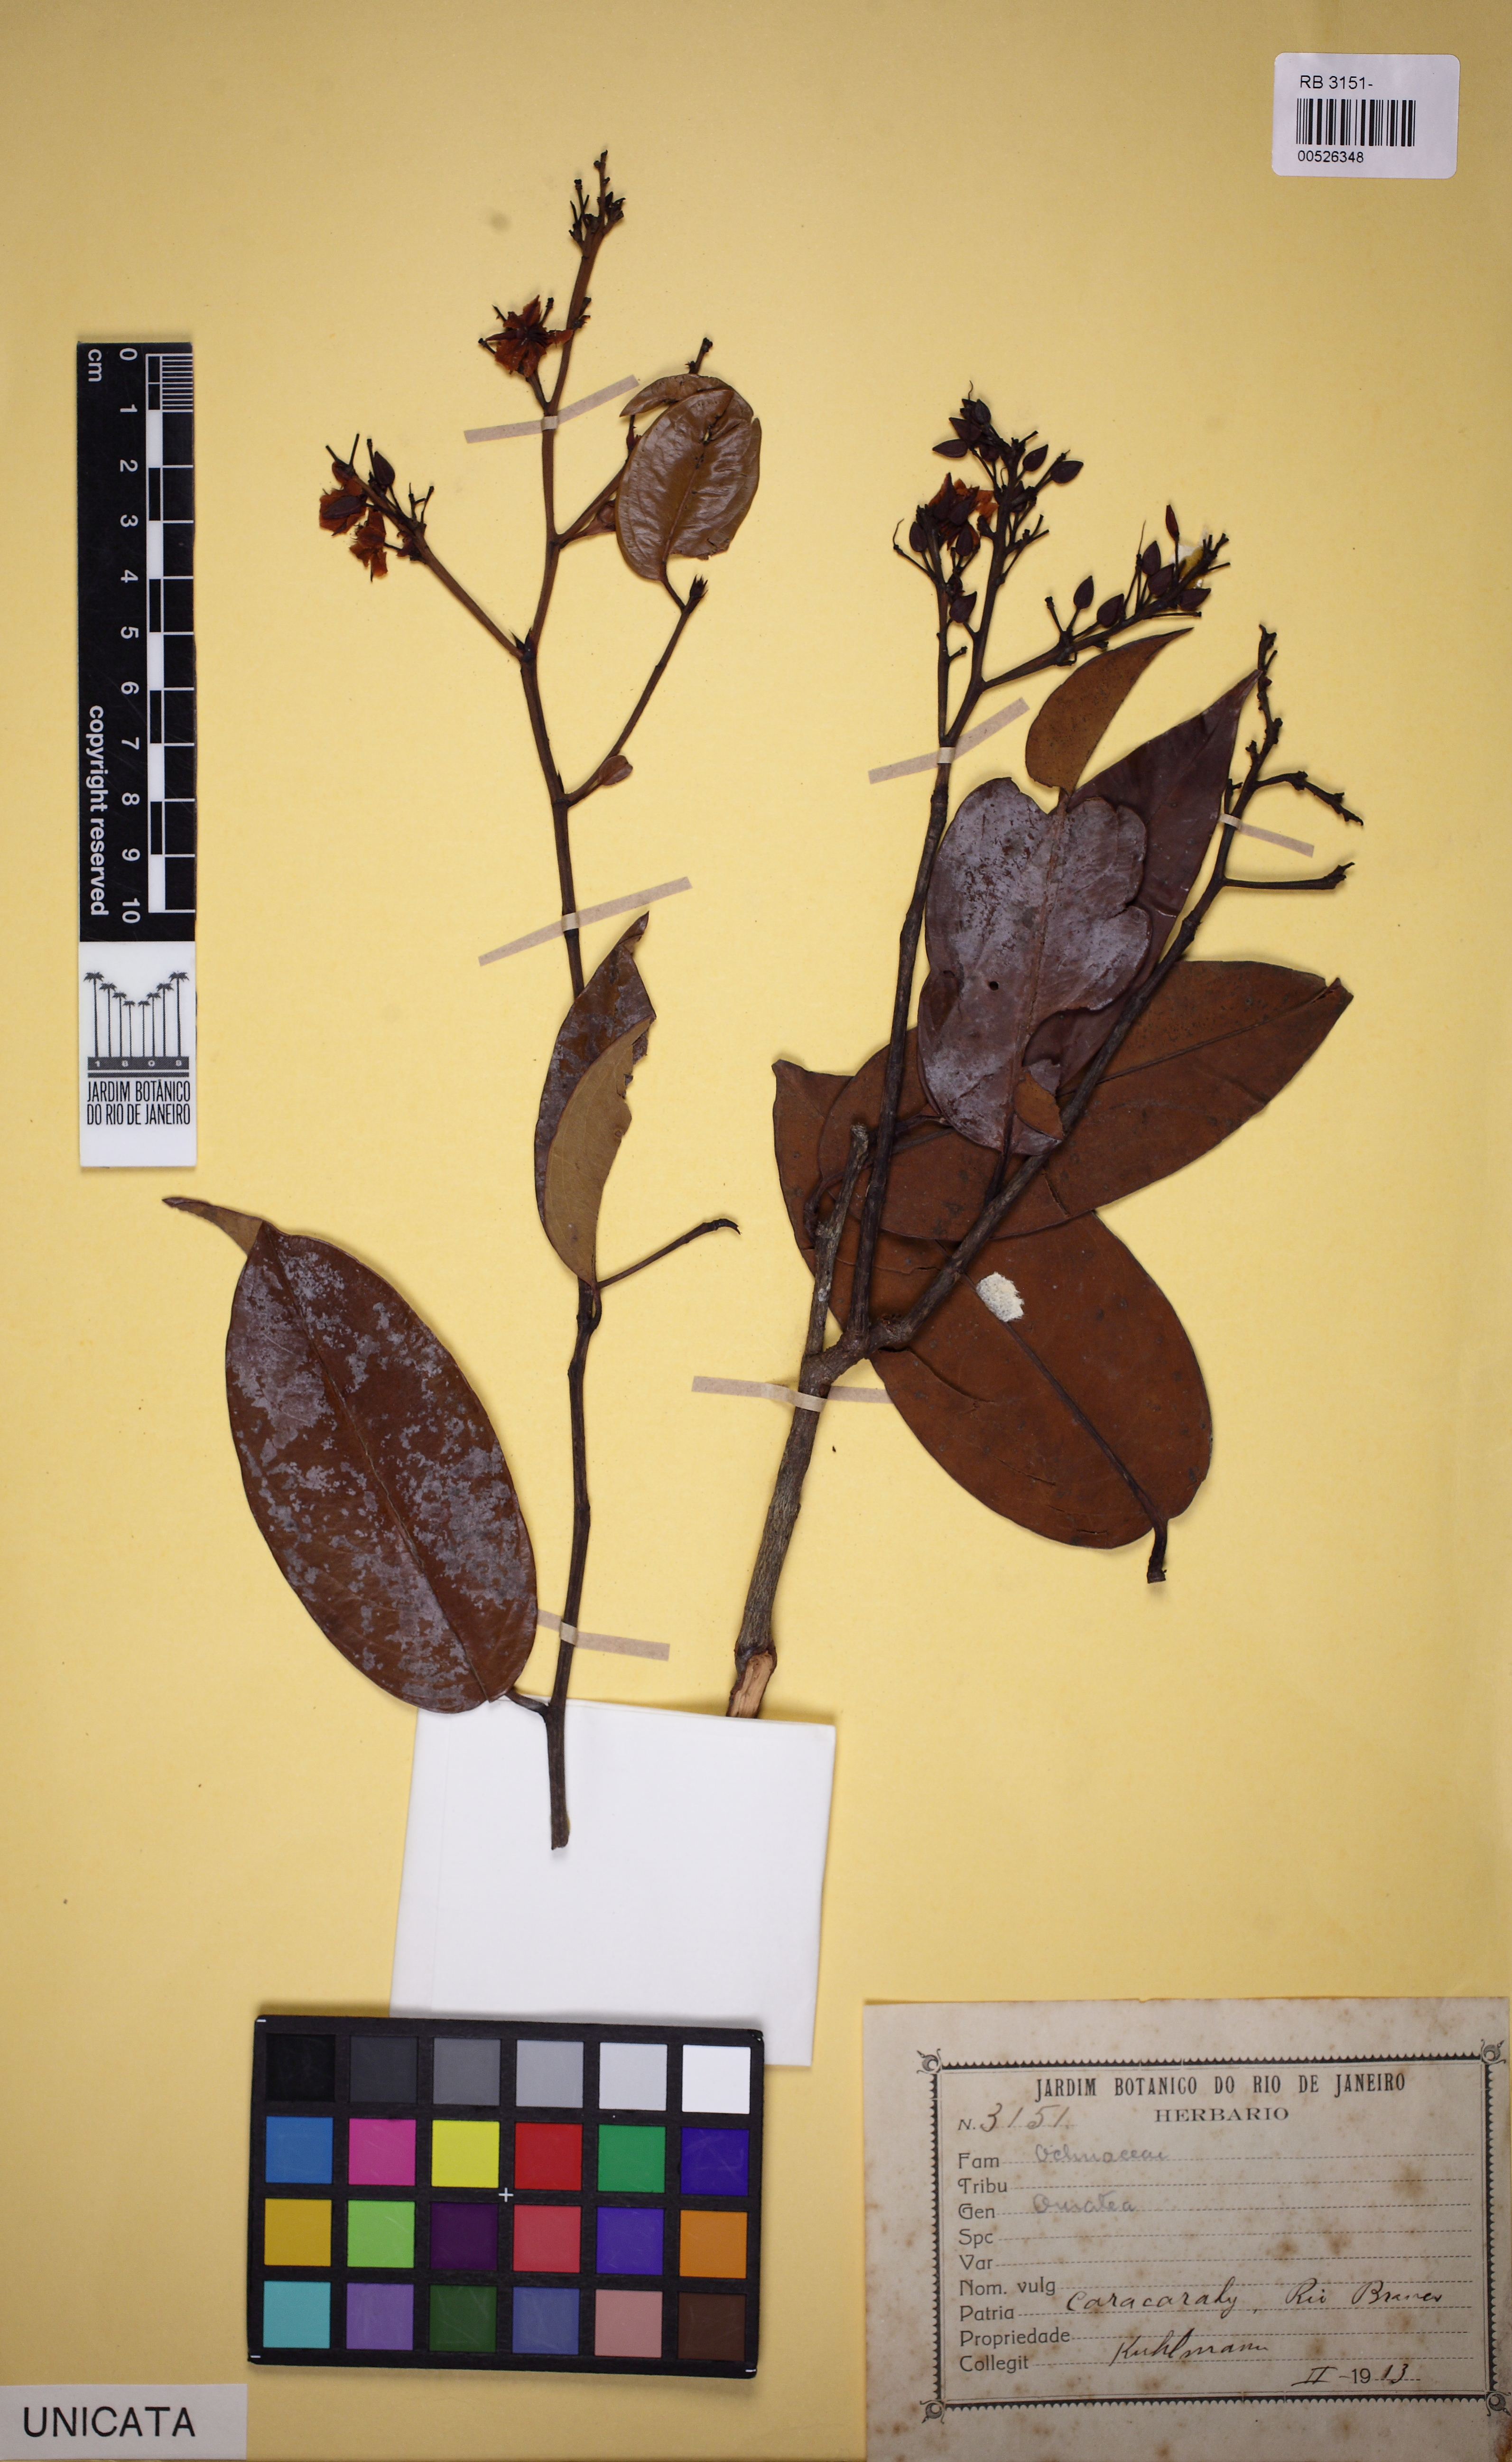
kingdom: Plantae
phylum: Tracheophyta
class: Magnoliopsida
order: Malpighiales
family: Ochnaceae
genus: Ouratea
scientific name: Ouratea
